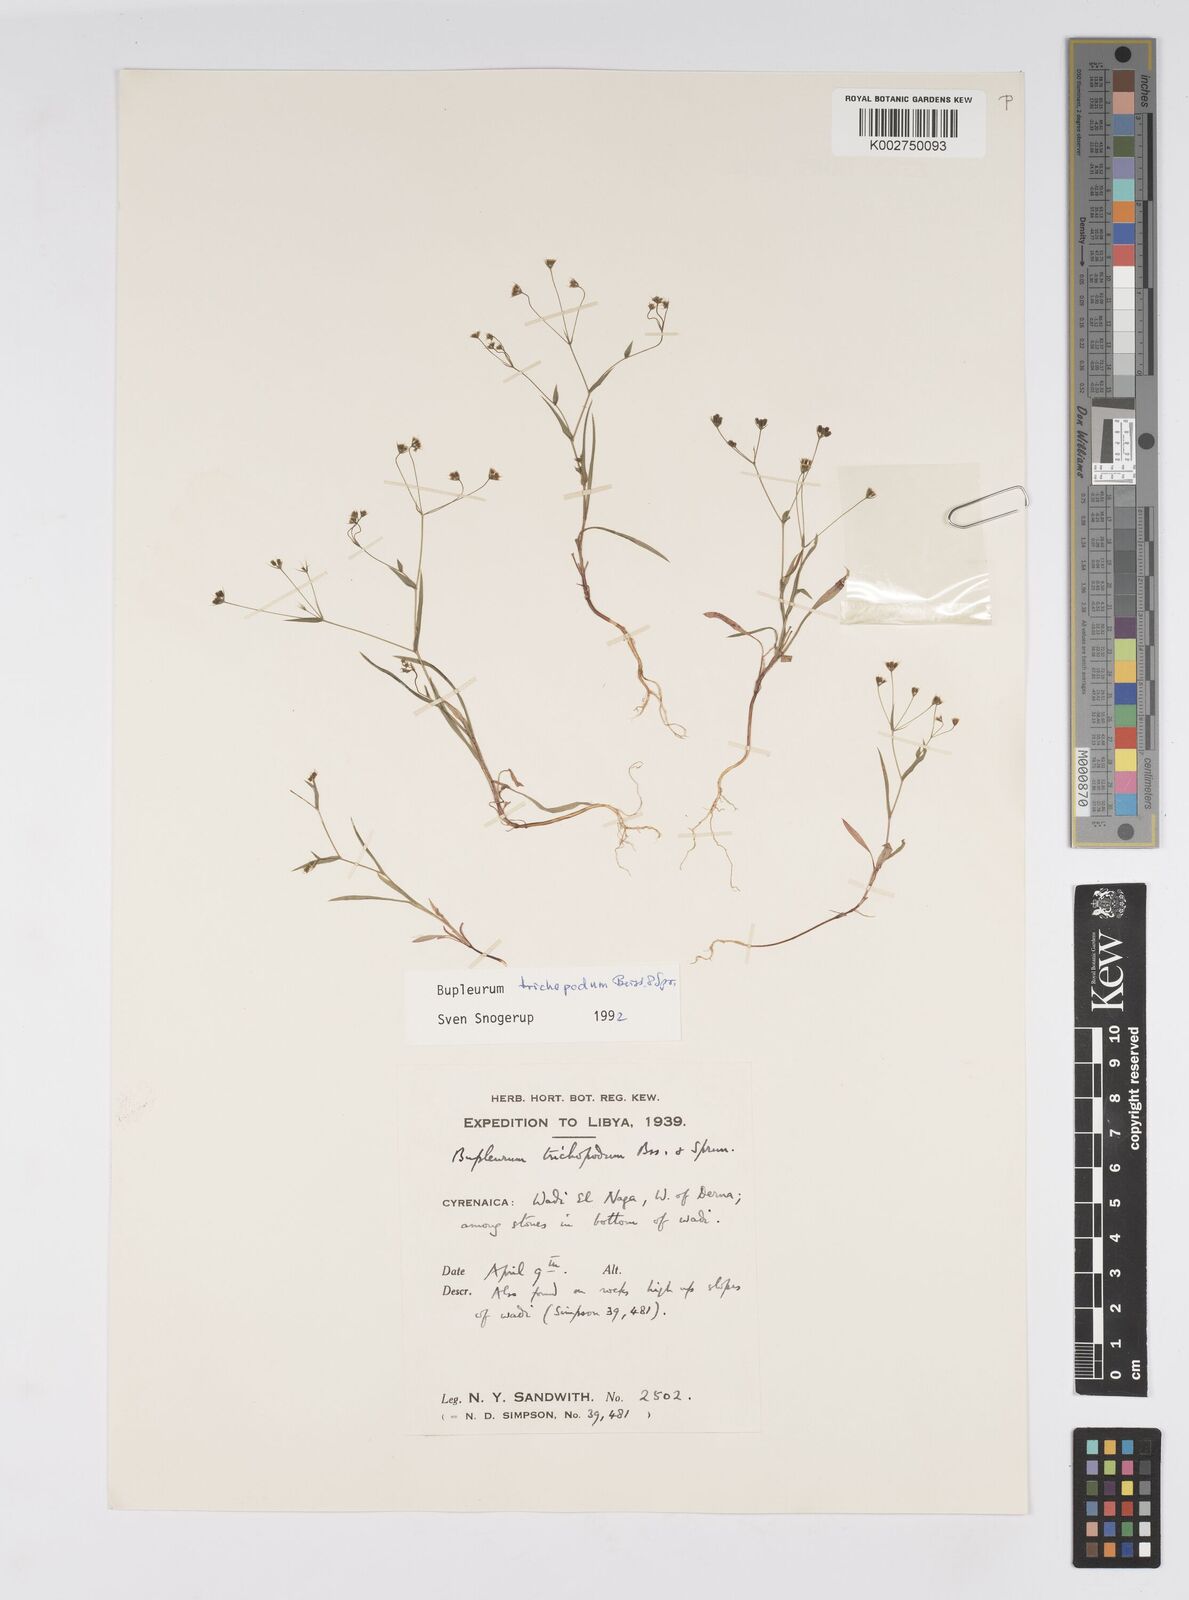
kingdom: Plantae
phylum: Tracheophyta
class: Magnoliopsida
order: Apiales
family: Apiaceae
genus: Bupleurum
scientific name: Bupleurum trichopodum
